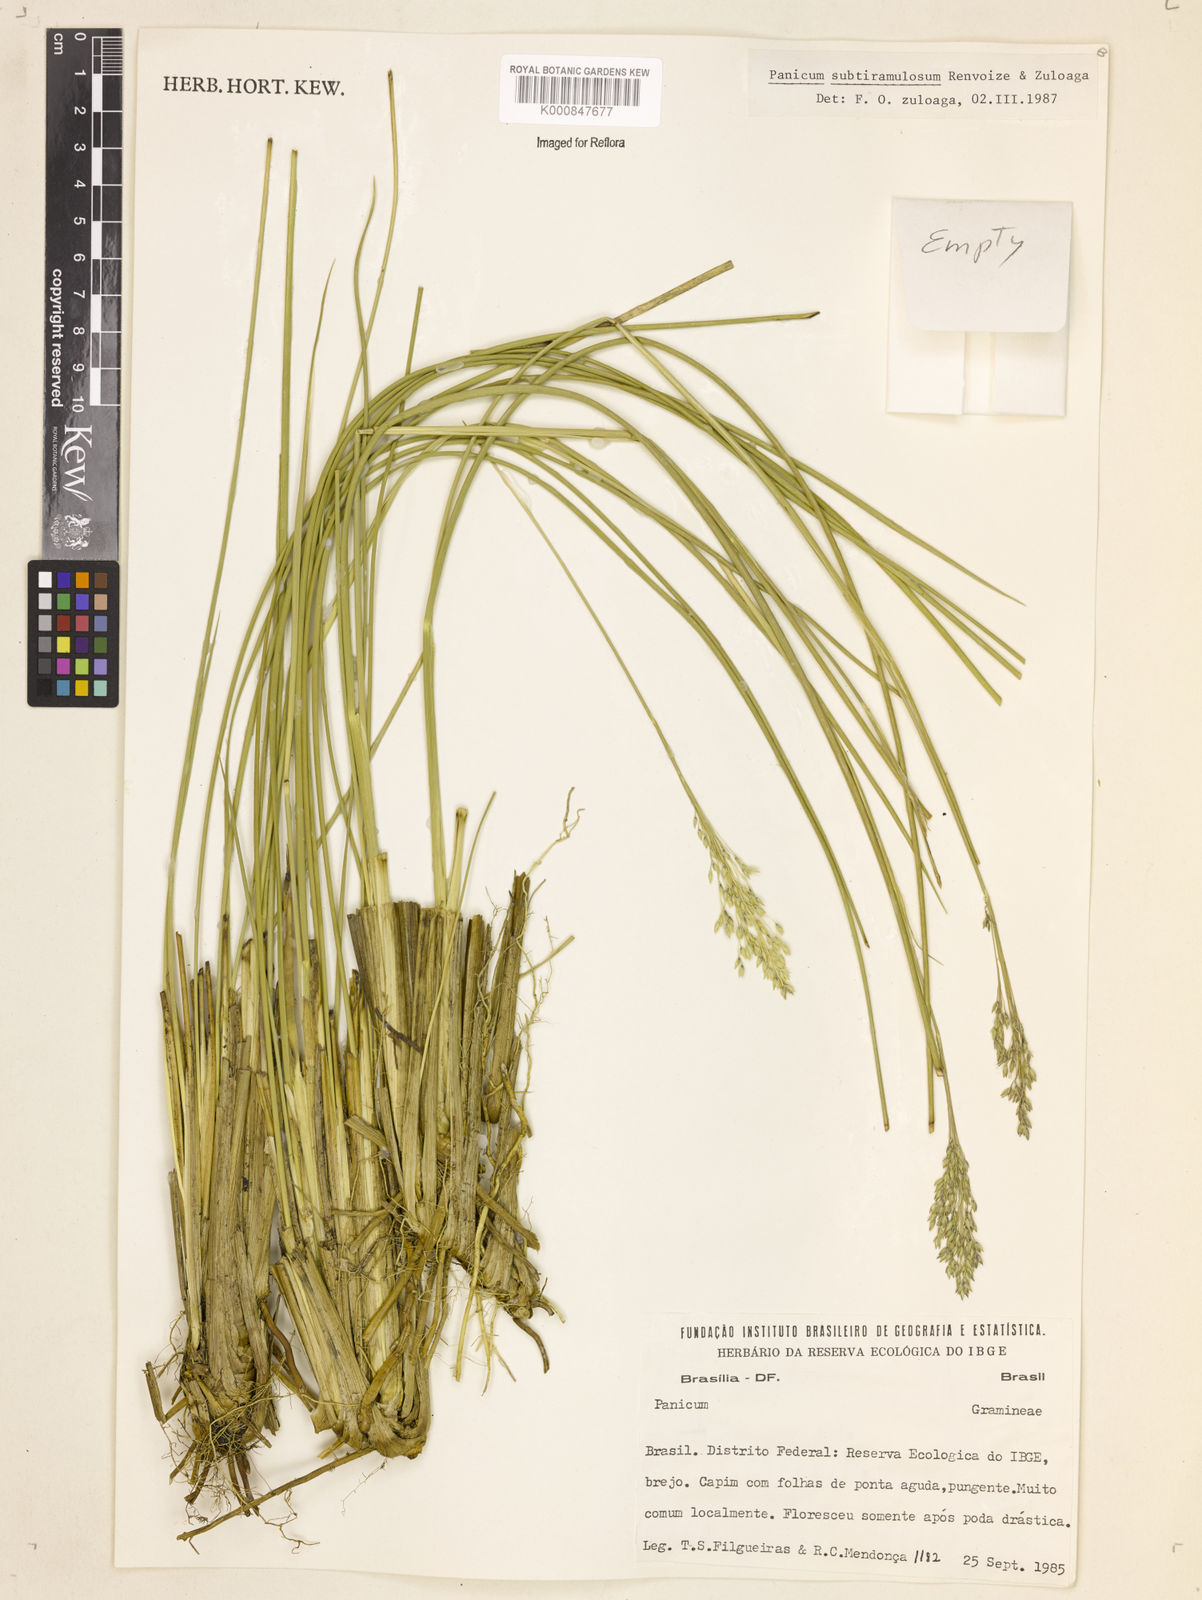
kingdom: Plantae
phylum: Tracheophyta
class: Liliopsida
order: Poales
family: Poaceae
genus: Apochloa
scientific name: Apochloa subtiramulosa
